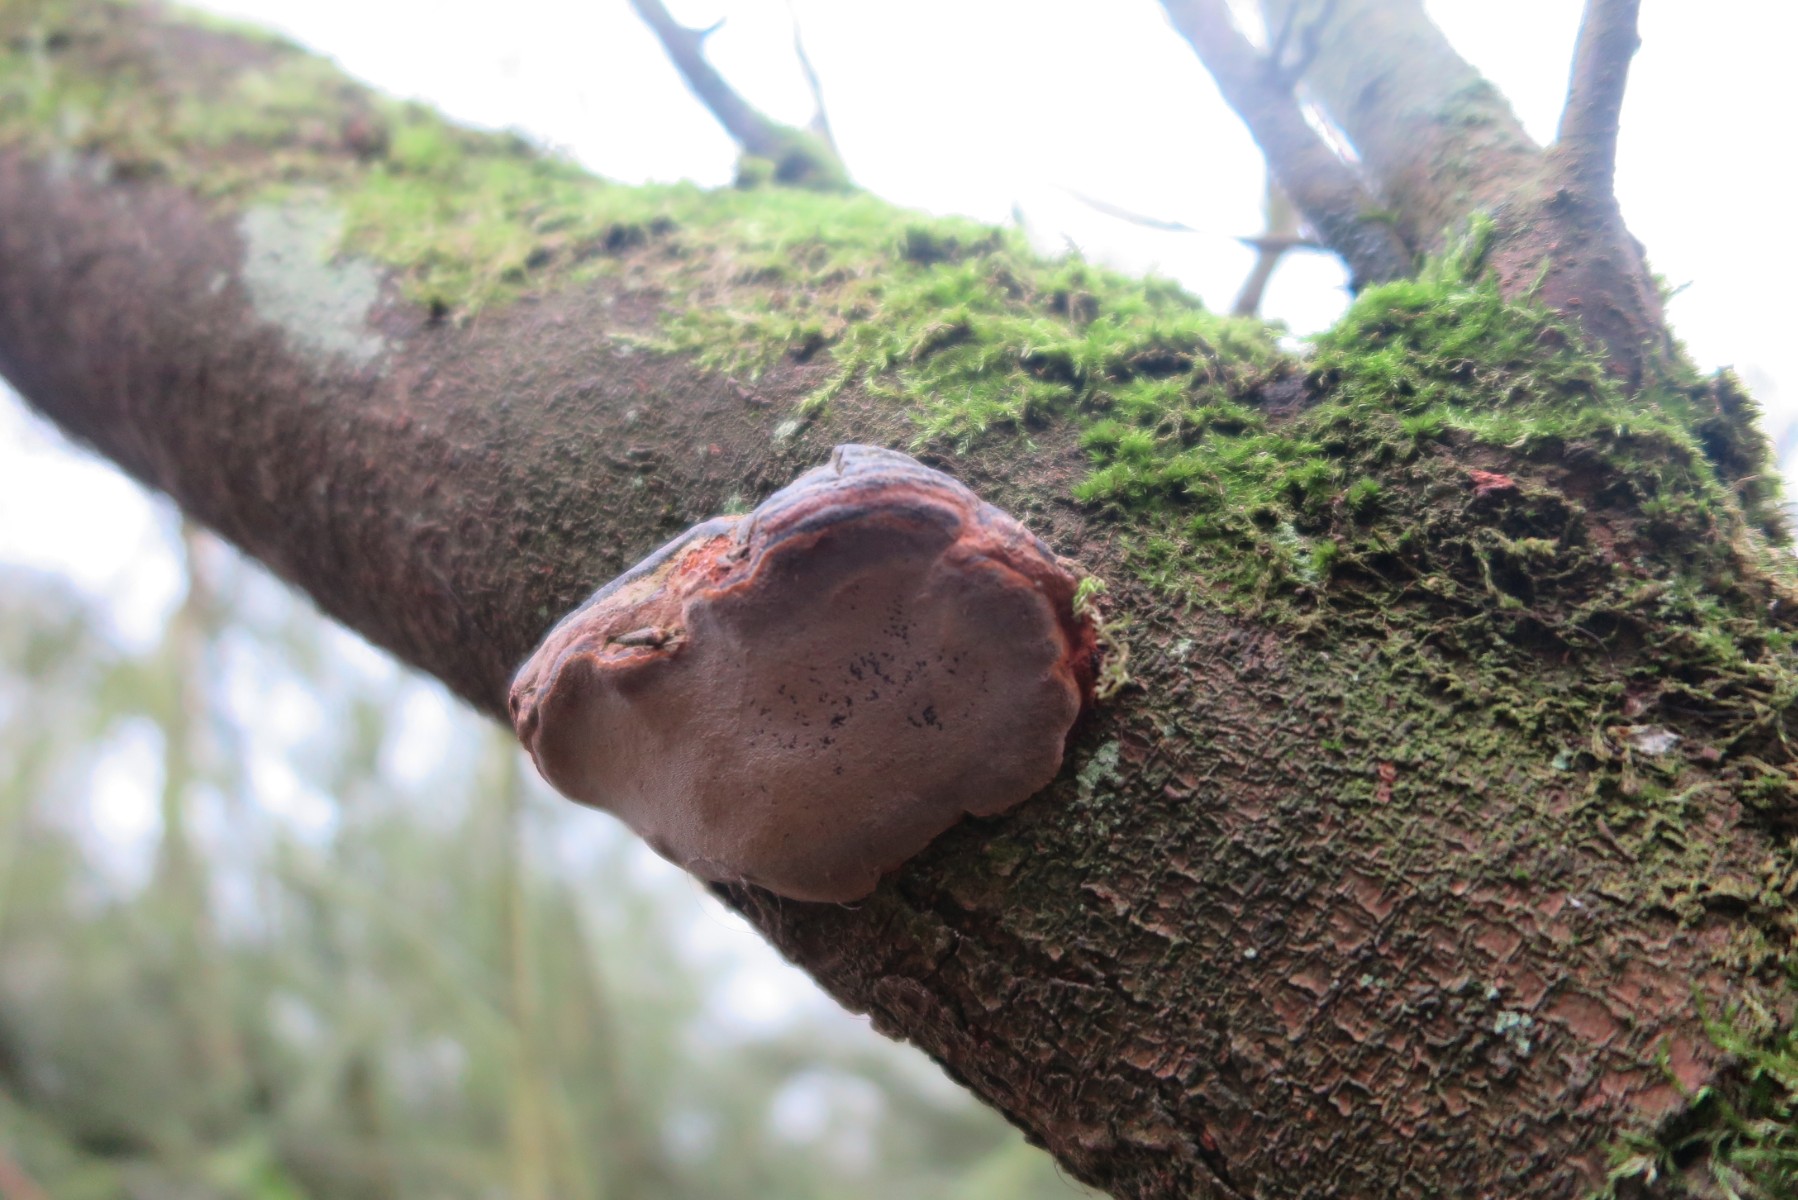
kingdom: Fungi
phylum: Basidiomycota
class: Agaricomycetes
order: Hymenochaetales
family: Hymenochaetaceae
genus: Phellinus
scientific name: Phellinus pomaceus
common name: blomme-ildporesvamp
